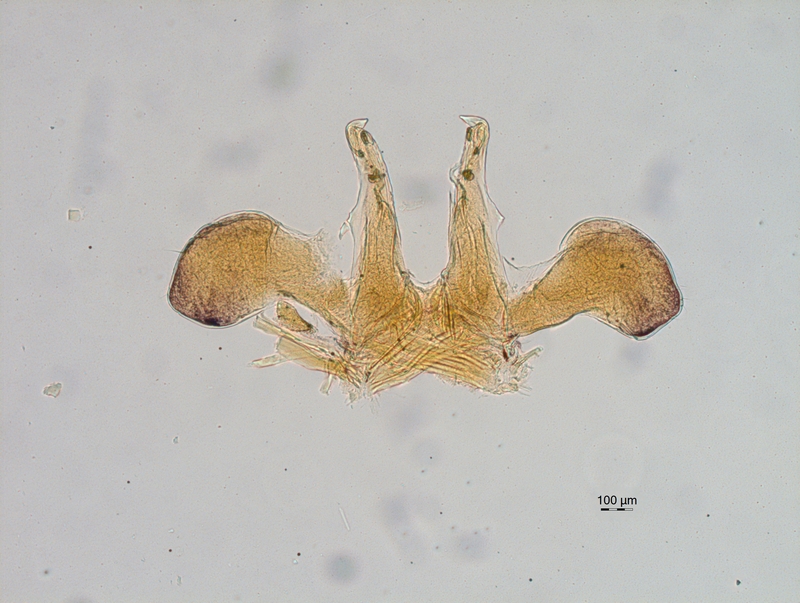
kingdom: Animalia
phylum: Arthropoda
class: Diplopoda
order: Chordeumatida
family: Chordeumatidae
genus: Chordeuma
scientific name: Chordeuma sylvestre
